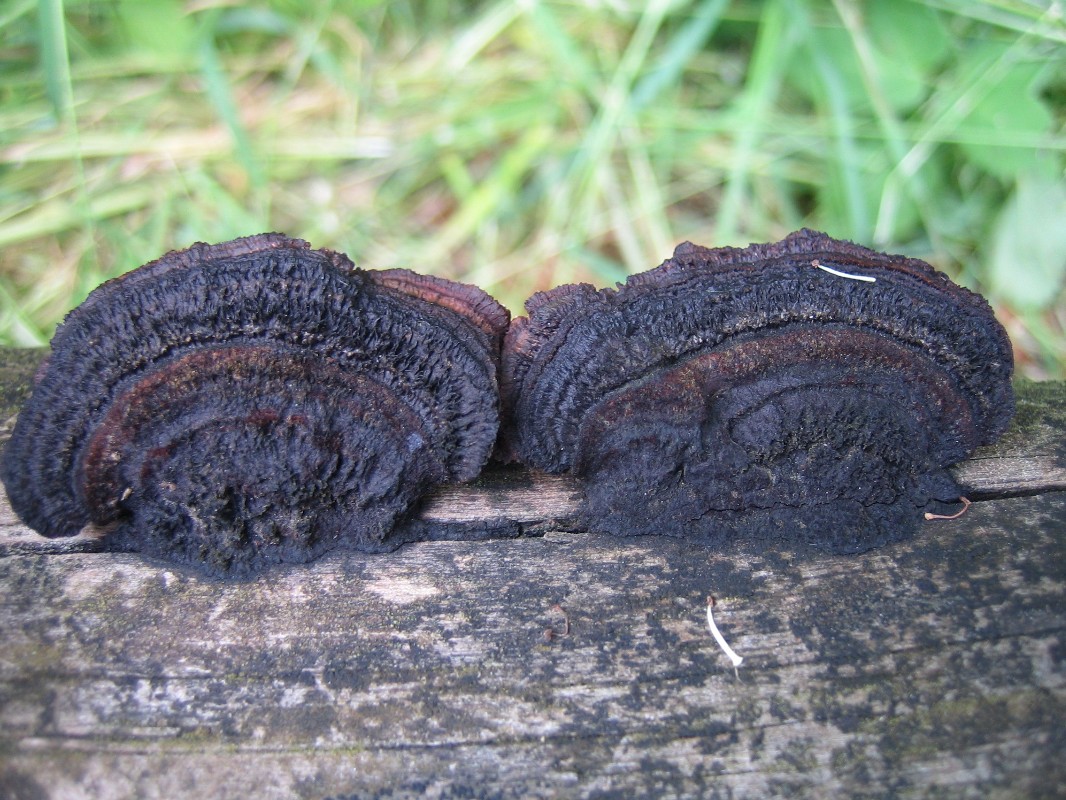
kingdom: Fungi
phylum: Basidiomycota
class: Agaricomycetes
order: Gloeophyllales
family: Gloeophyllaceae
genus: Gloeophyllum
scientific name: Gloeophyllum sepiarium
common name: fyrre-korkhat
